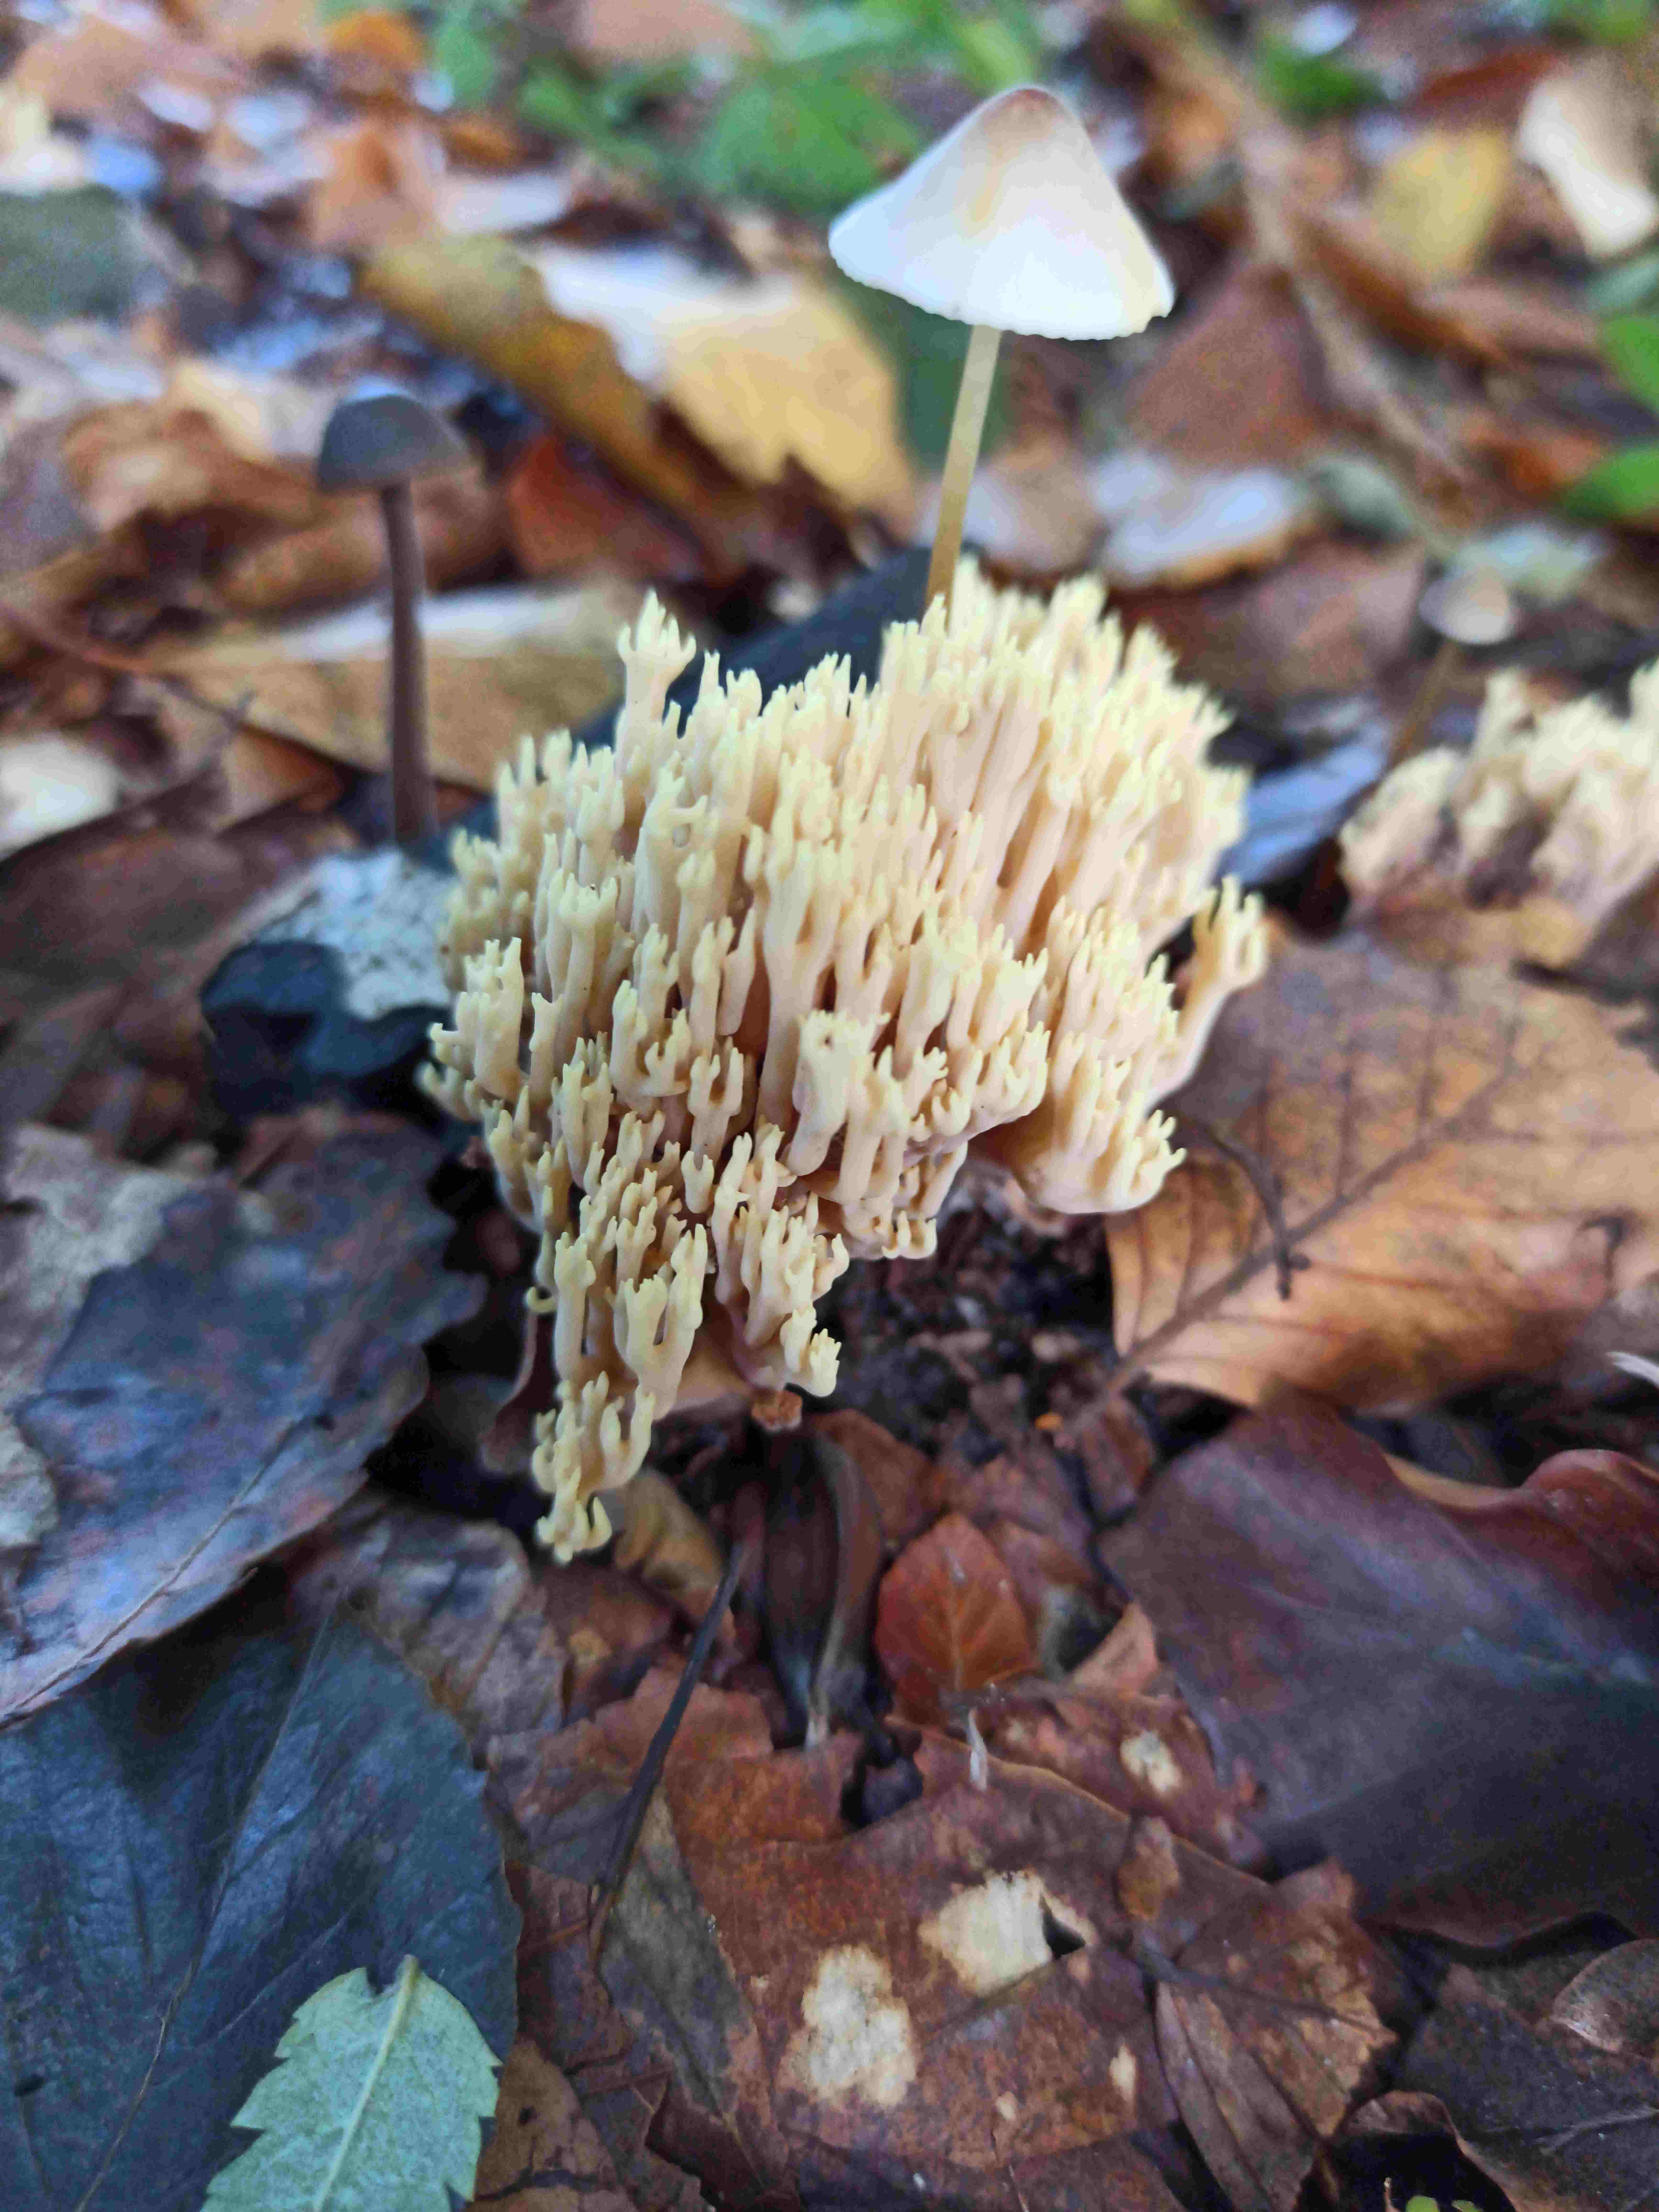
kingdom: Fungi
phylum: Basidiomycota
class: Agaricomycetes
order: Gomphales
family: Gomphaceae
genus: Ramaria
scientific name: Ramaria stricta
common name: rank koralsvamp
